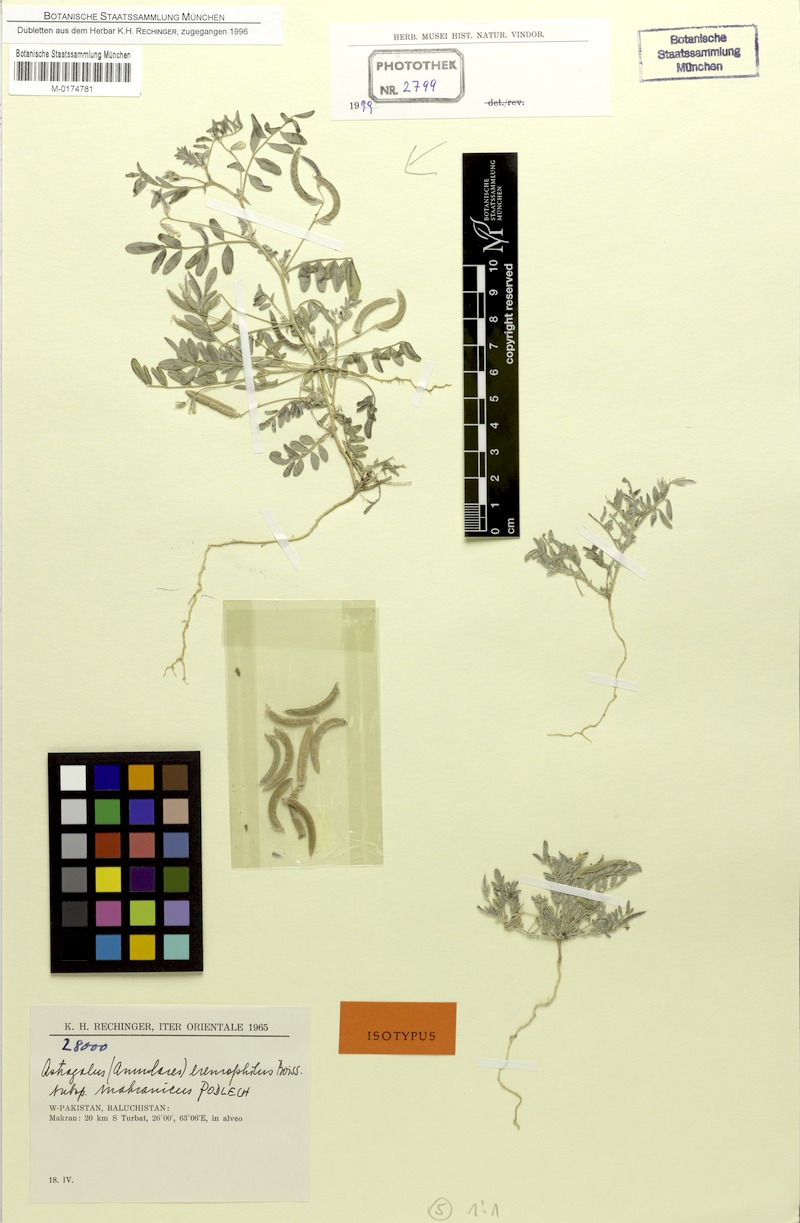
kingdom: Plantae
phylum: Tracheophyta
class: Magnoliopsida
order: Fabales
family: Fabaceae
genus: Astragalus
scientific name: Astragalus eremophilus
